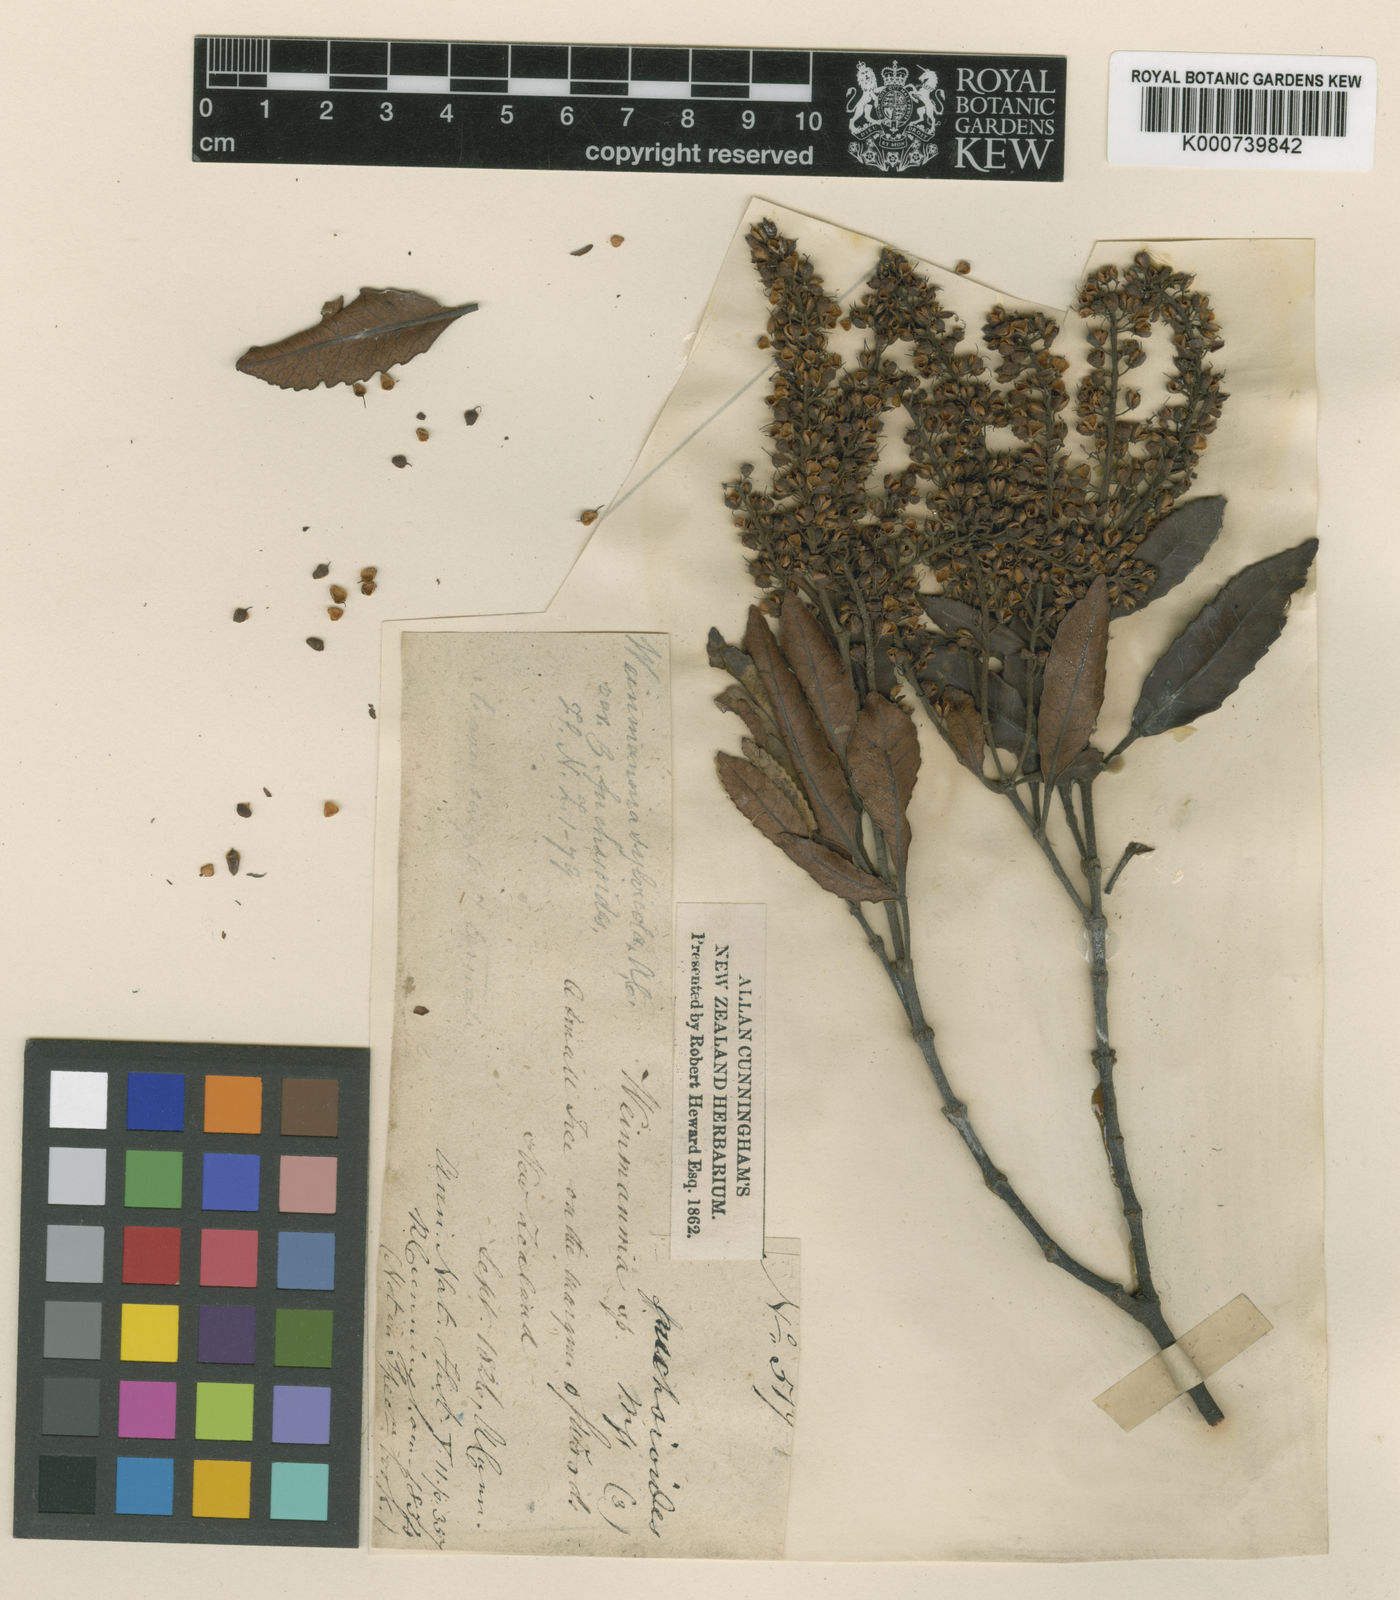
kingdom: Plantae
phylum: Tracheophyta
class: Magnoliopsida
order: Oxalidales
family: Cunoniaceae
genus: Pterophylla
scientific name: Pterophylla sylvicola
